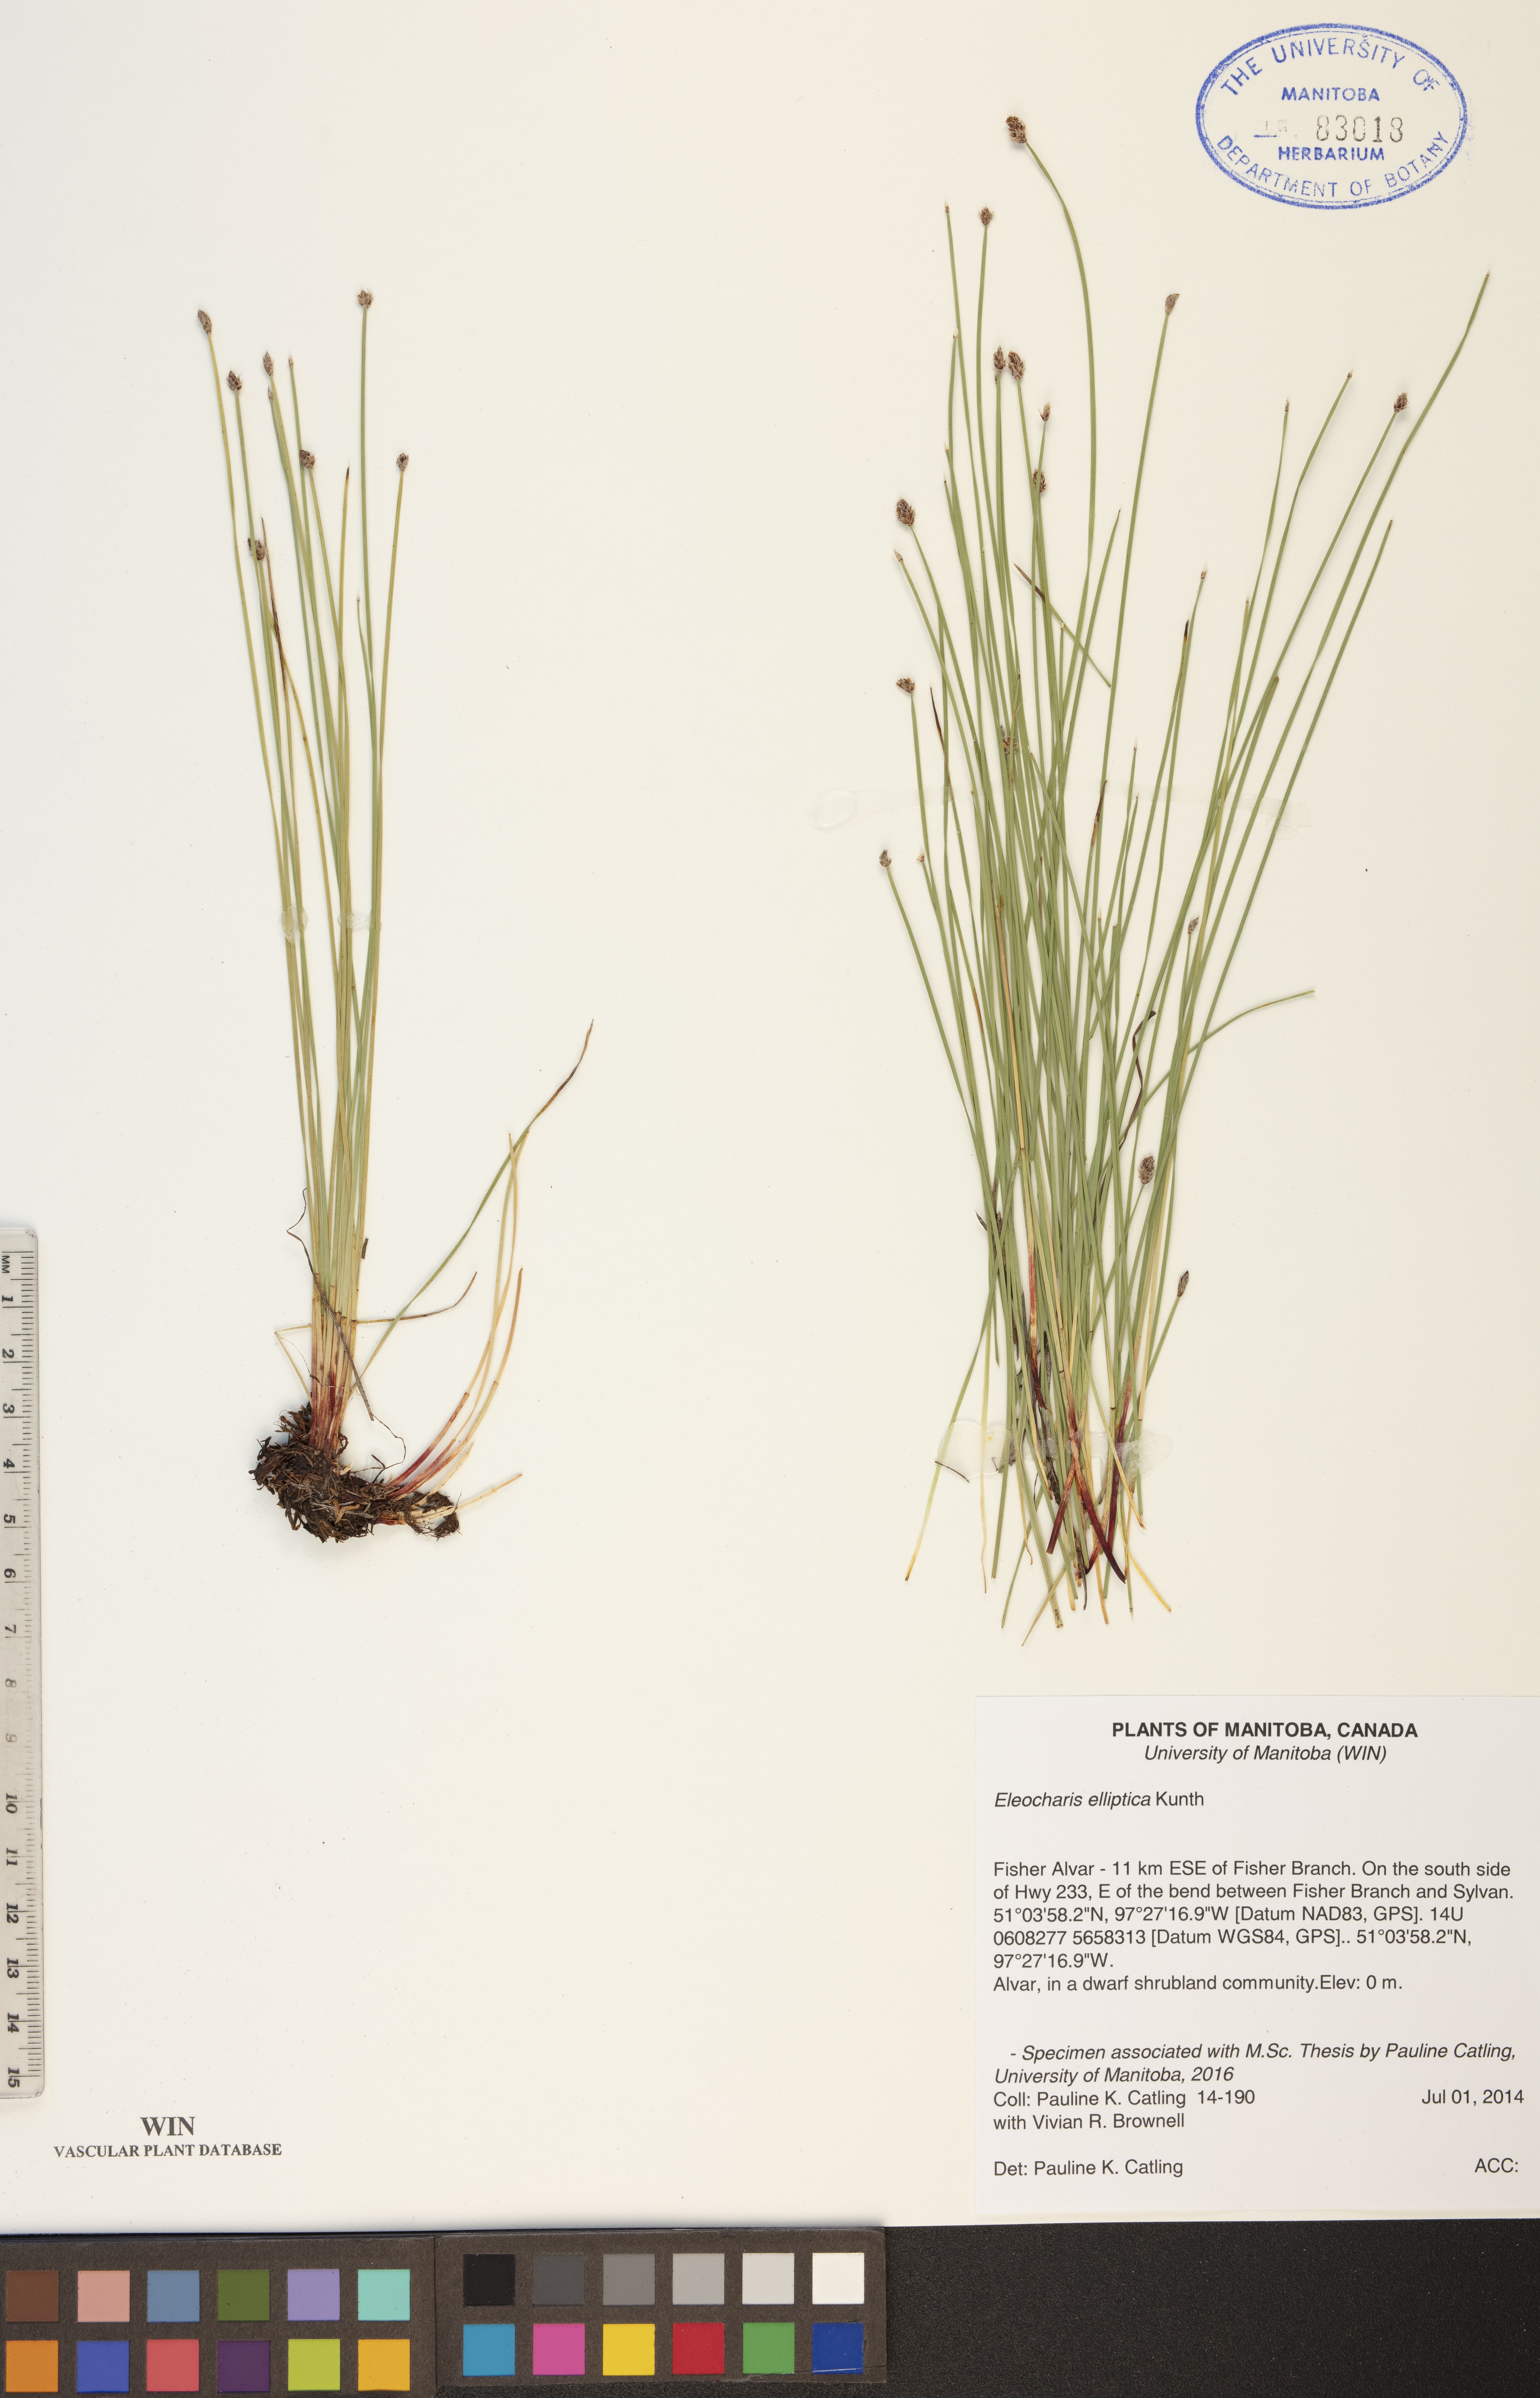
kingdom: Plantae
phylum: Tracheophyta
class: Liliopsida
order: Poales
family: Cyperaceae
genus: Eleocharis
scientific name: Eleocharis elliptica
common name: Capitate spikerush
